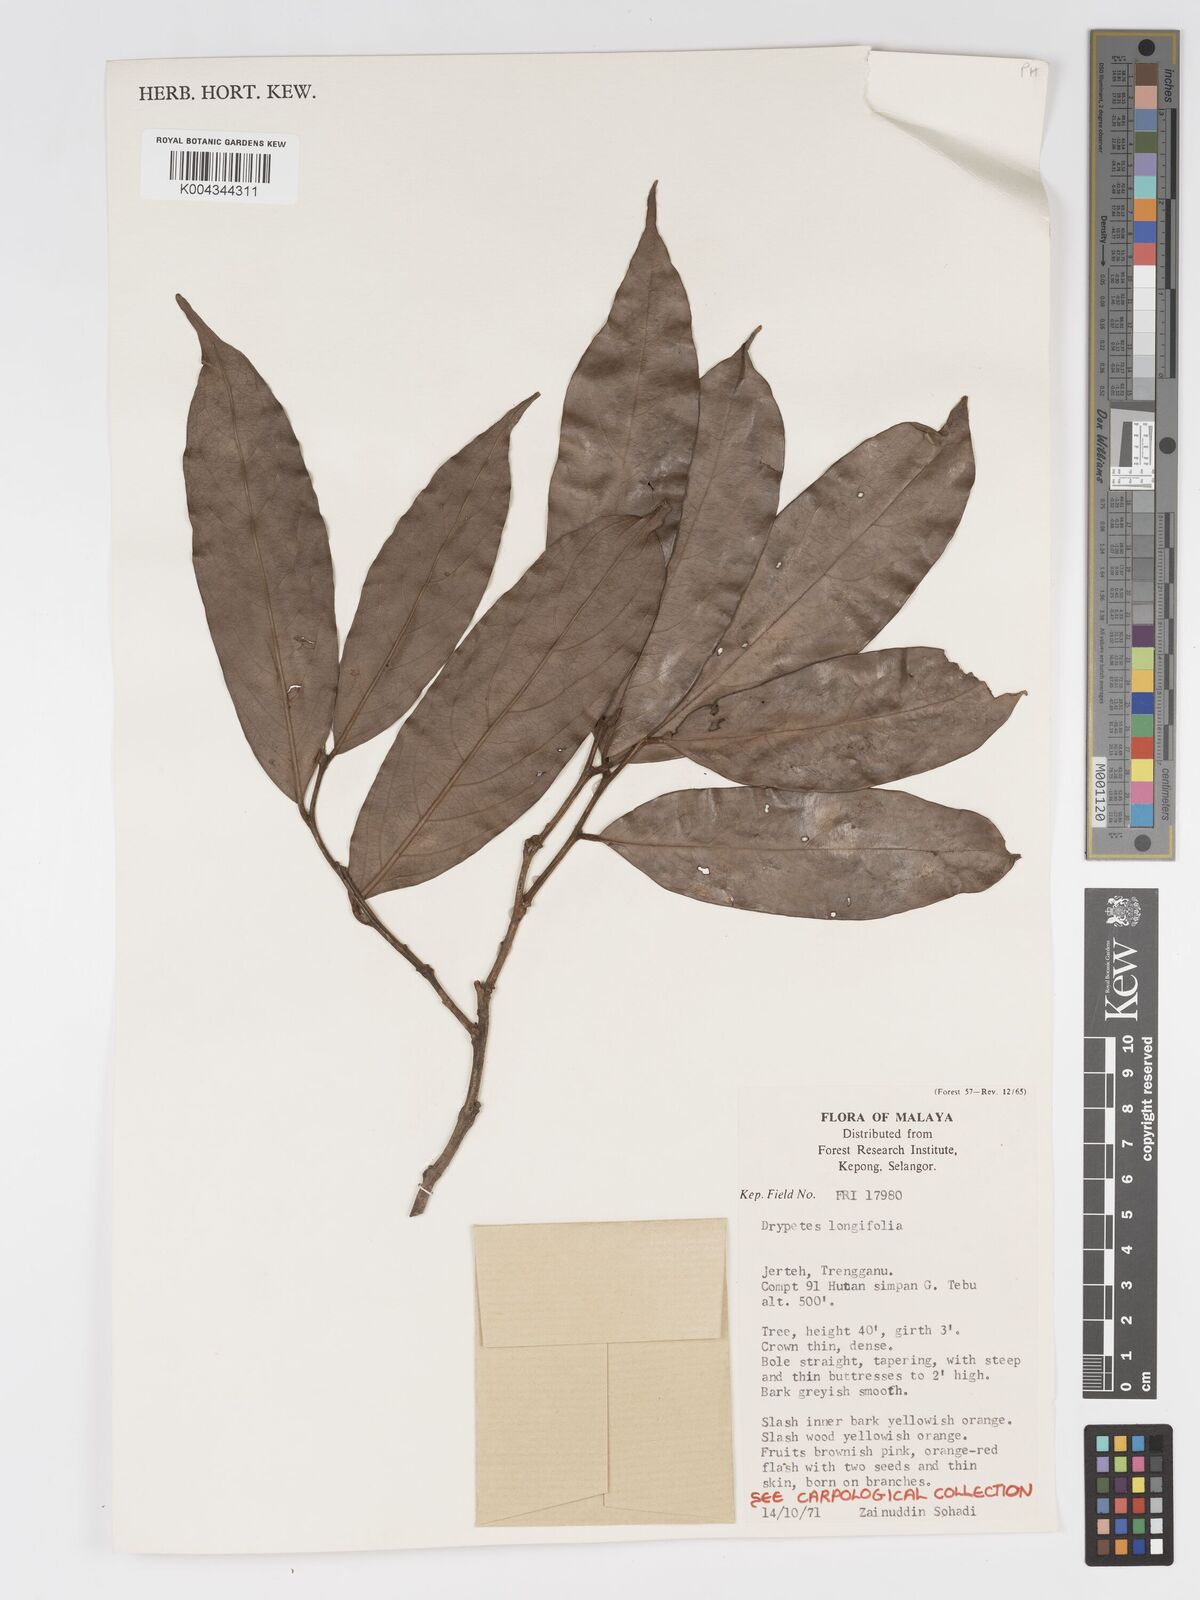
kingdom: Plantae
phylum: Tracheophyta
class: Magnoliopsida
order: Malpighiales
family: Putranjivaceae
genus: Drypetes
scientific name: Drypetes longifolia
